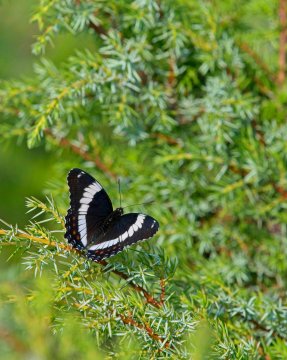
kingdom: Animalia
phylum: Arthropoda
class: Insecta
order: Lepidoptera
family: Nymphalidae
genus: Limenitis
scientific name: Limenitis arthemis
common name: Red-spotted Admiral
